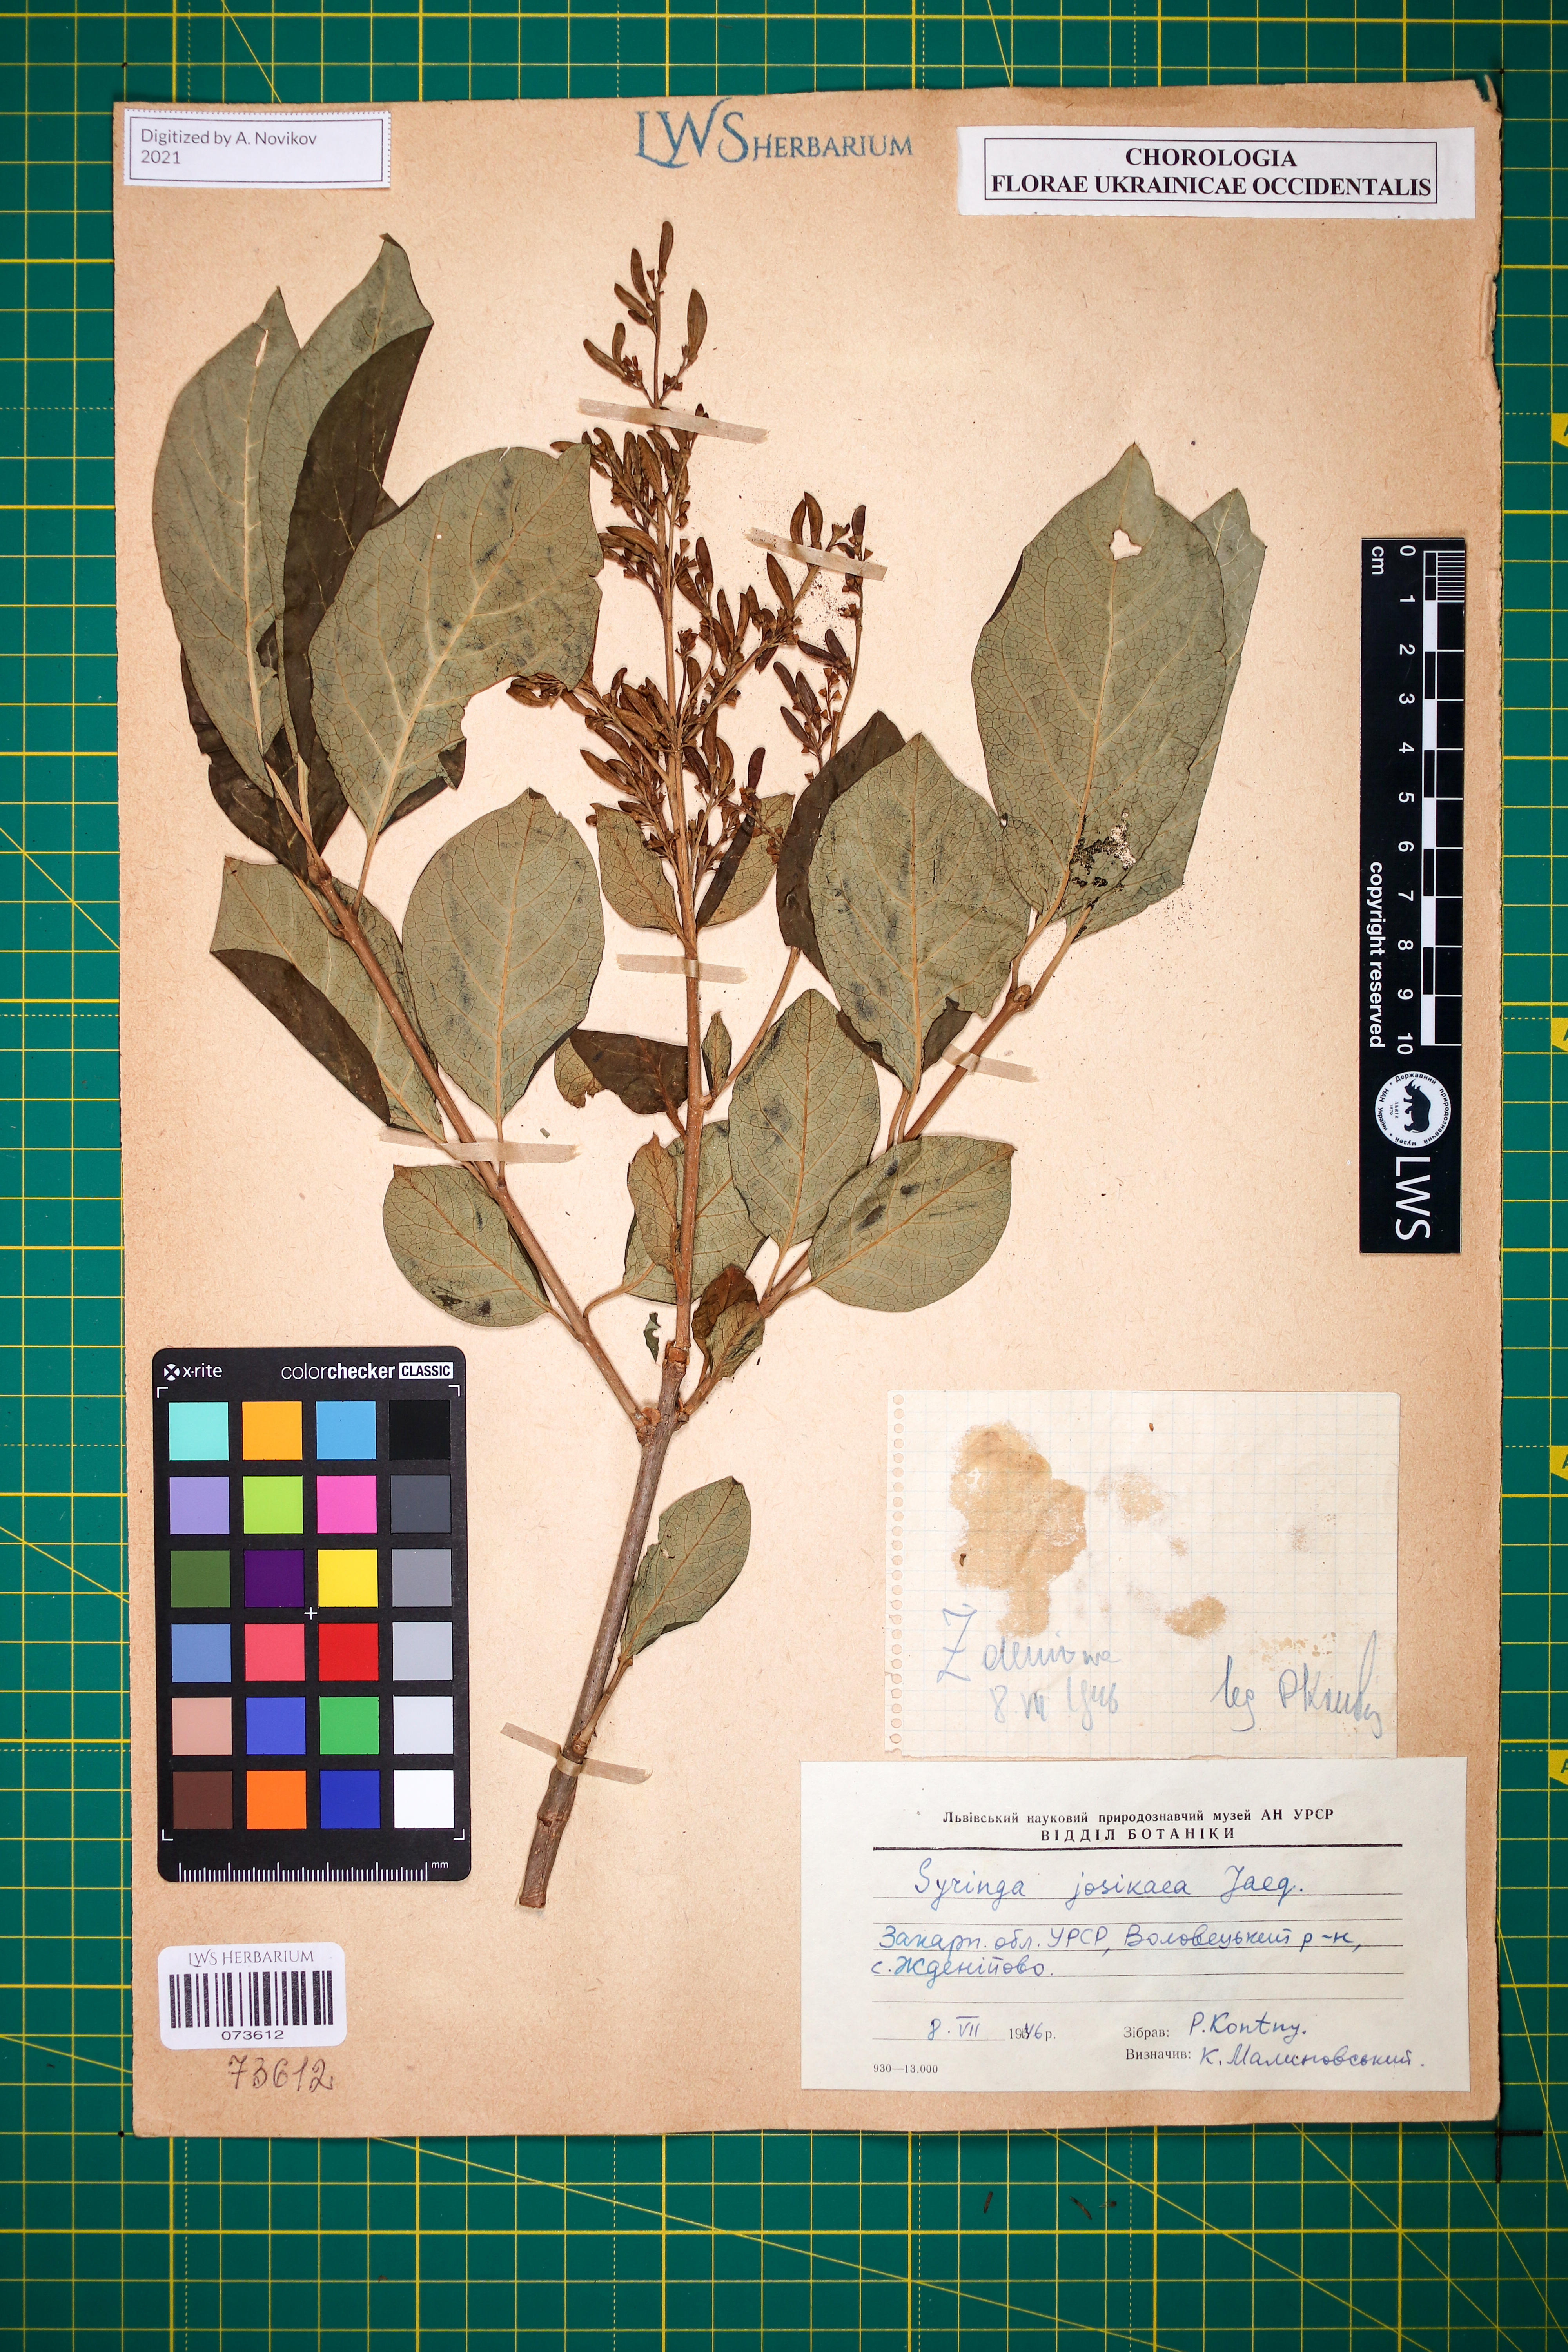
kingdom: Plantae
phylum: Tracheophyta
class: Magnoliopsida
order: Lamiales
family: Oleaceae
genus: Syringa
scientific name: Syringa josikaea
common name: Hungarian lilac
